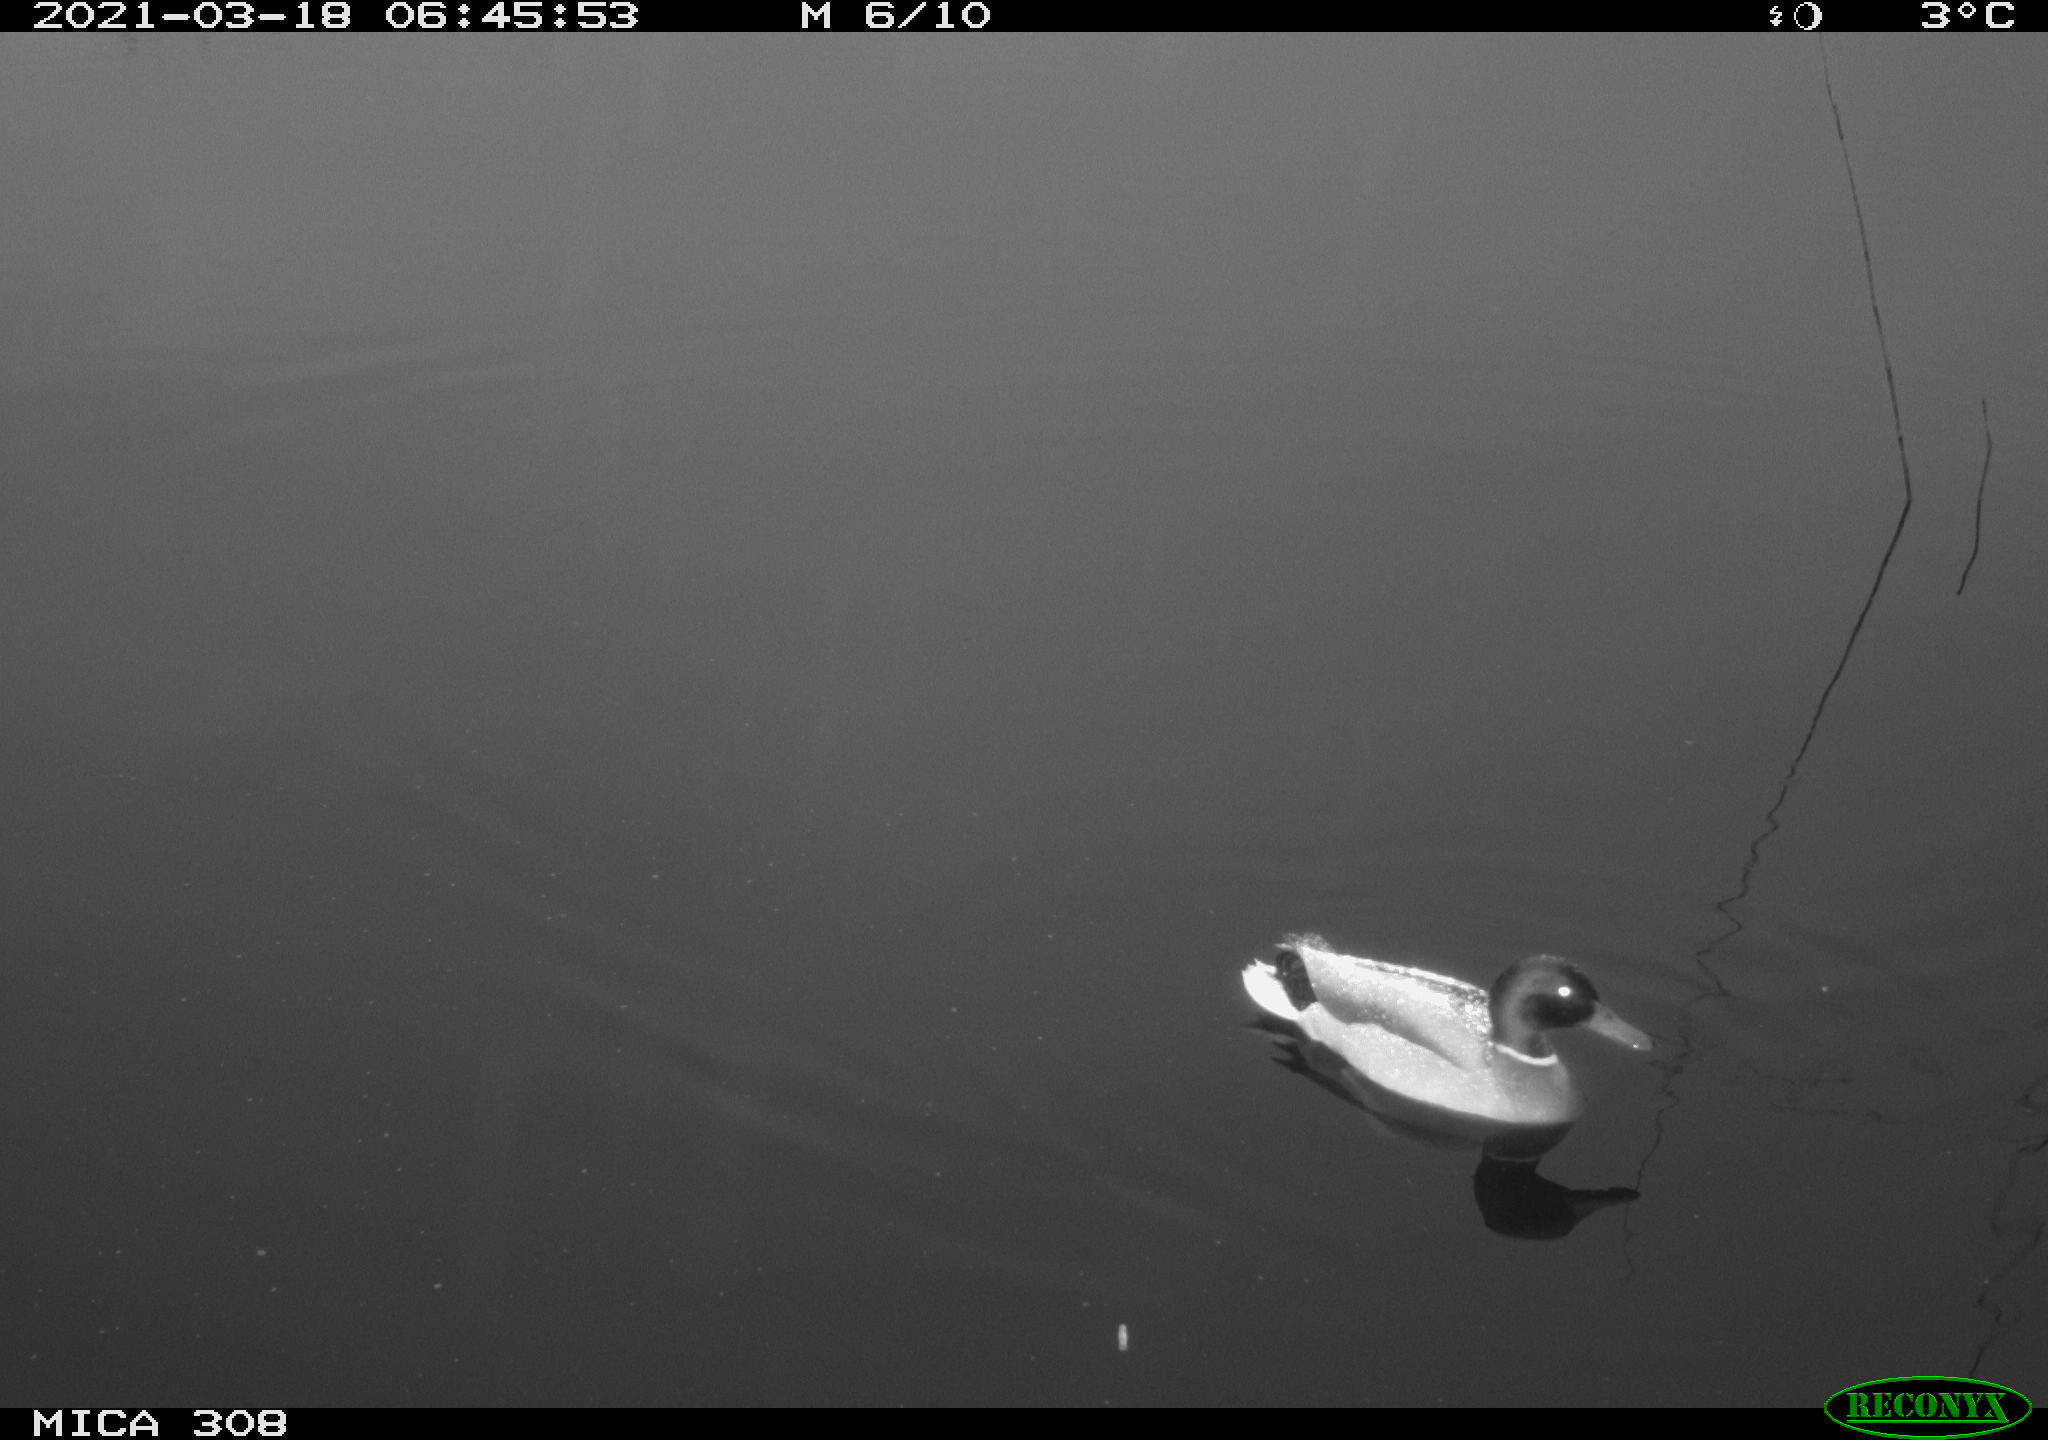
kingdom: Animalia
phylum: Chordata
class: Aves
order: Anseriformes
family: Anatidae
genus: Anas
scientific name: Anas platyrhynchos
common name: Mallard
